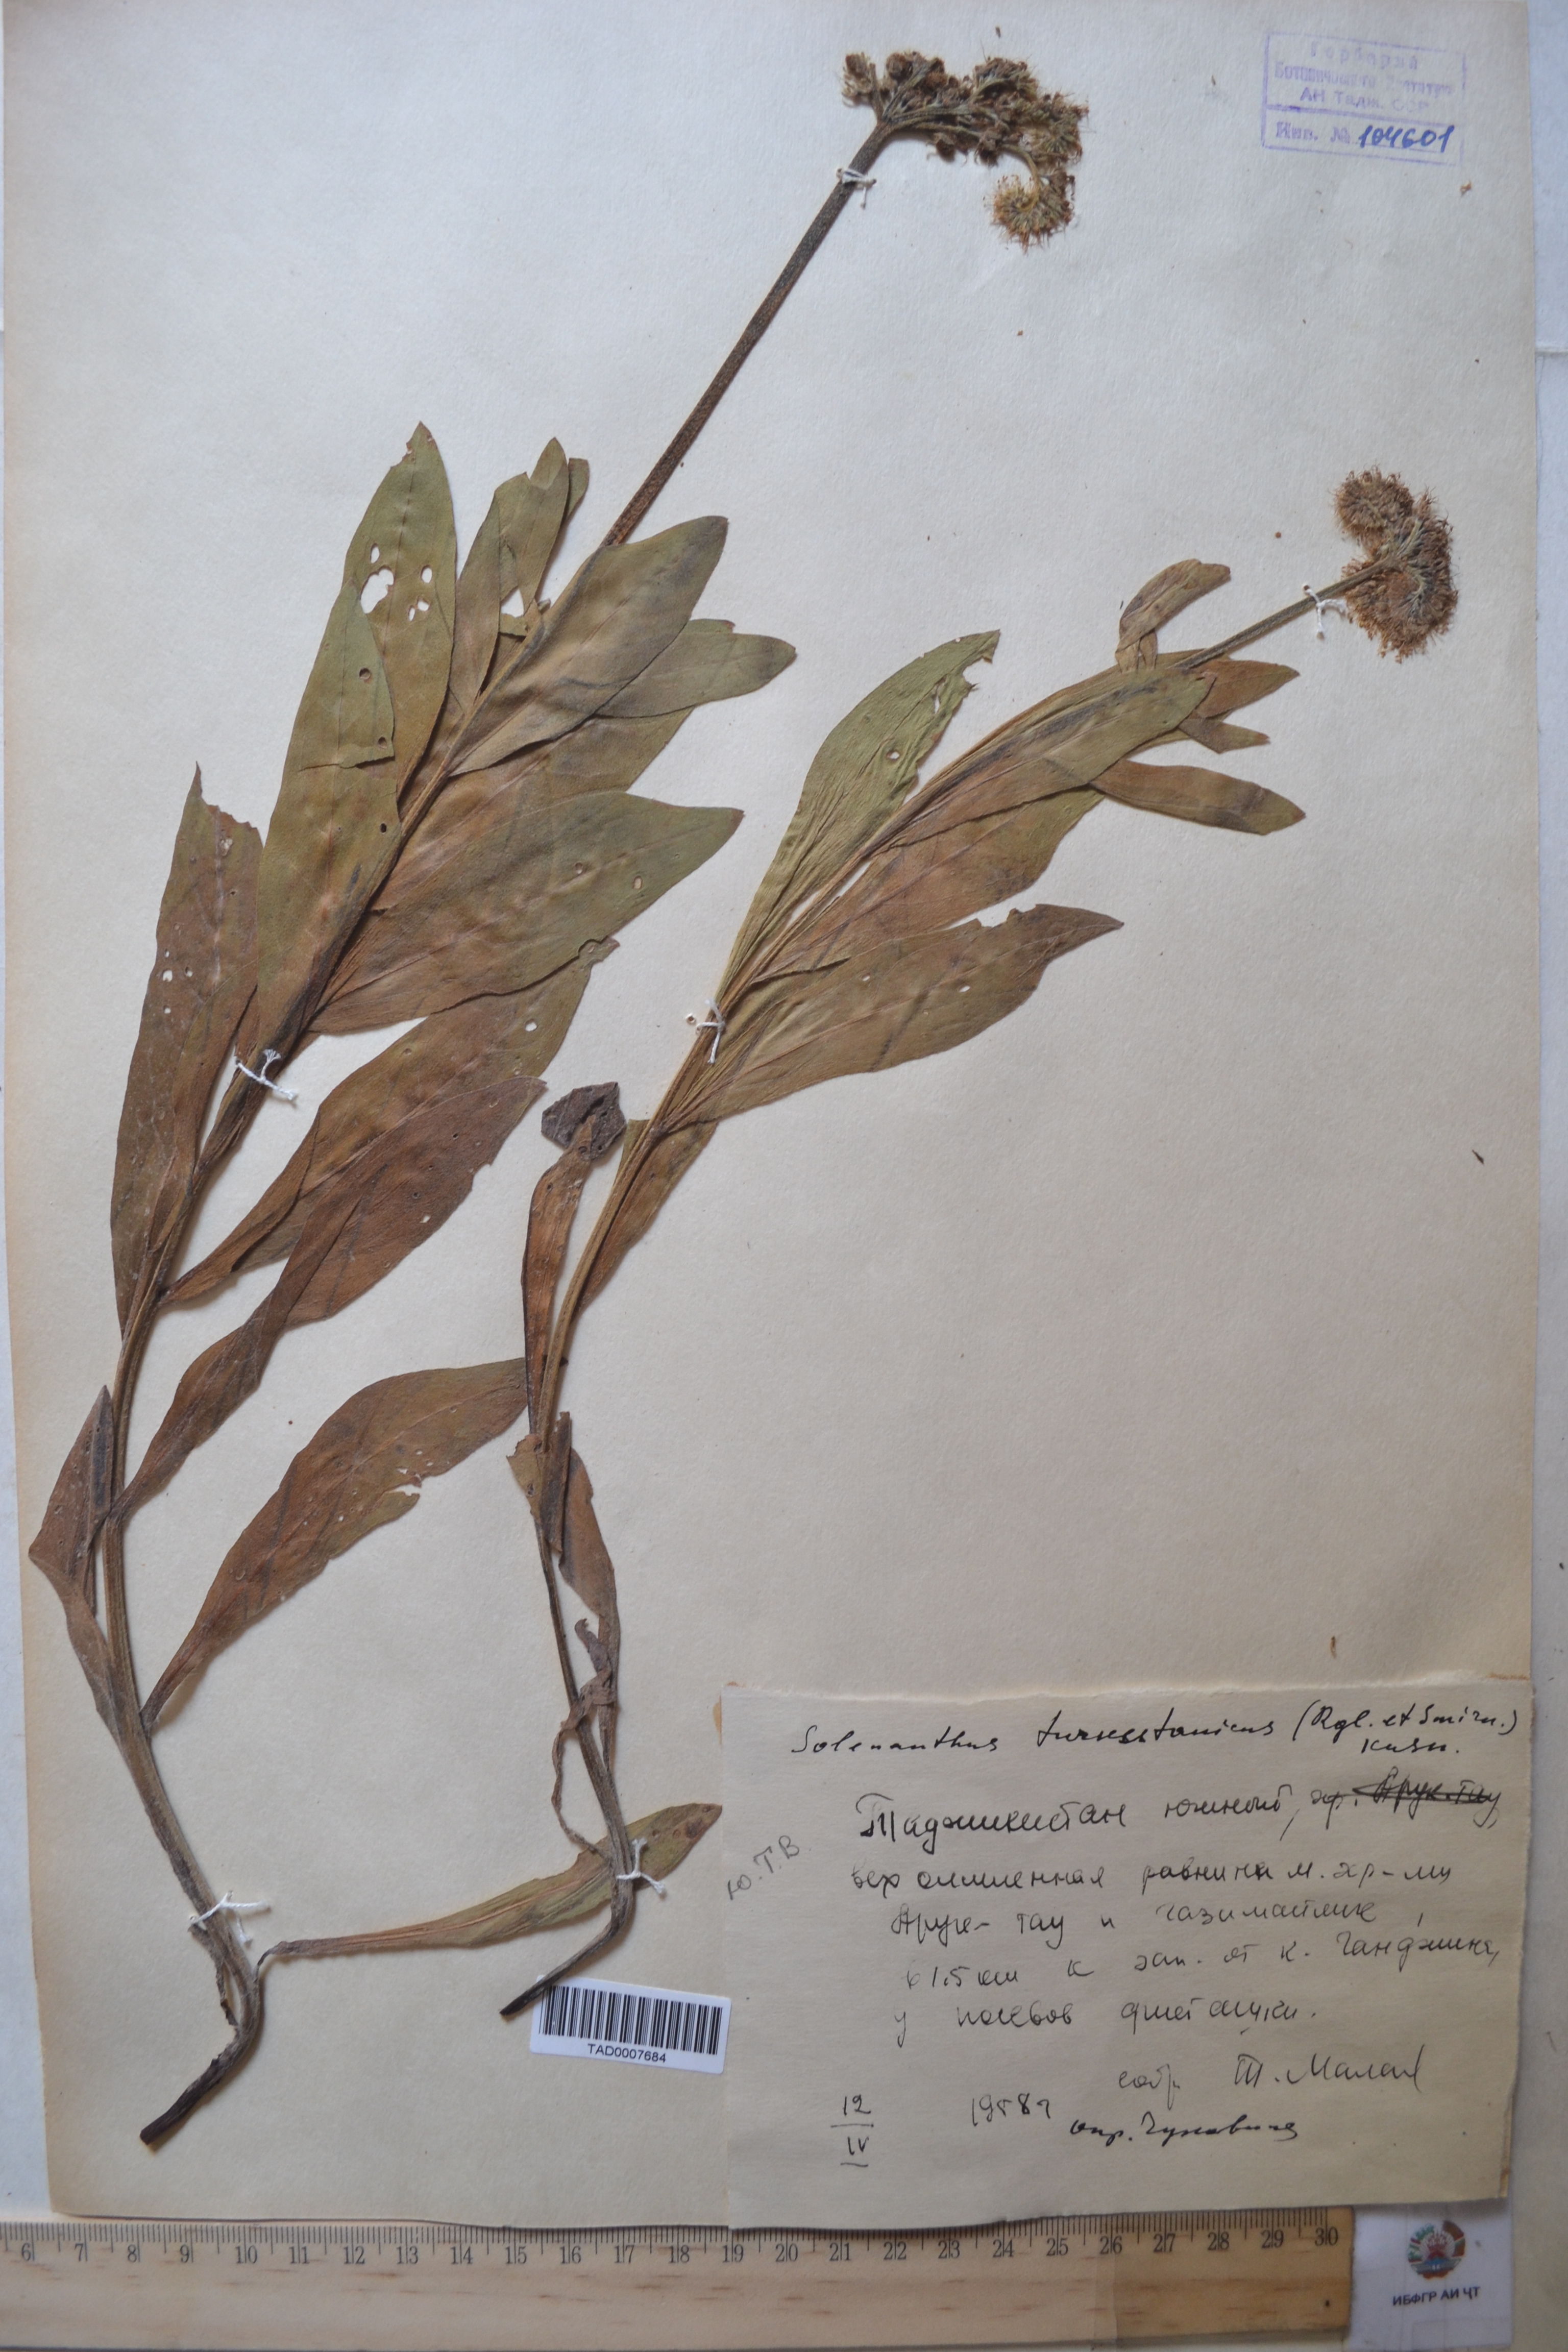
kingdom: Plantae
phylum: Tracheophyta
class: Magnoliopsida
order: Boraginales
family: Boraginaceae
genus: Solenanthus
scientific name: Solenanthus turkestanicus
